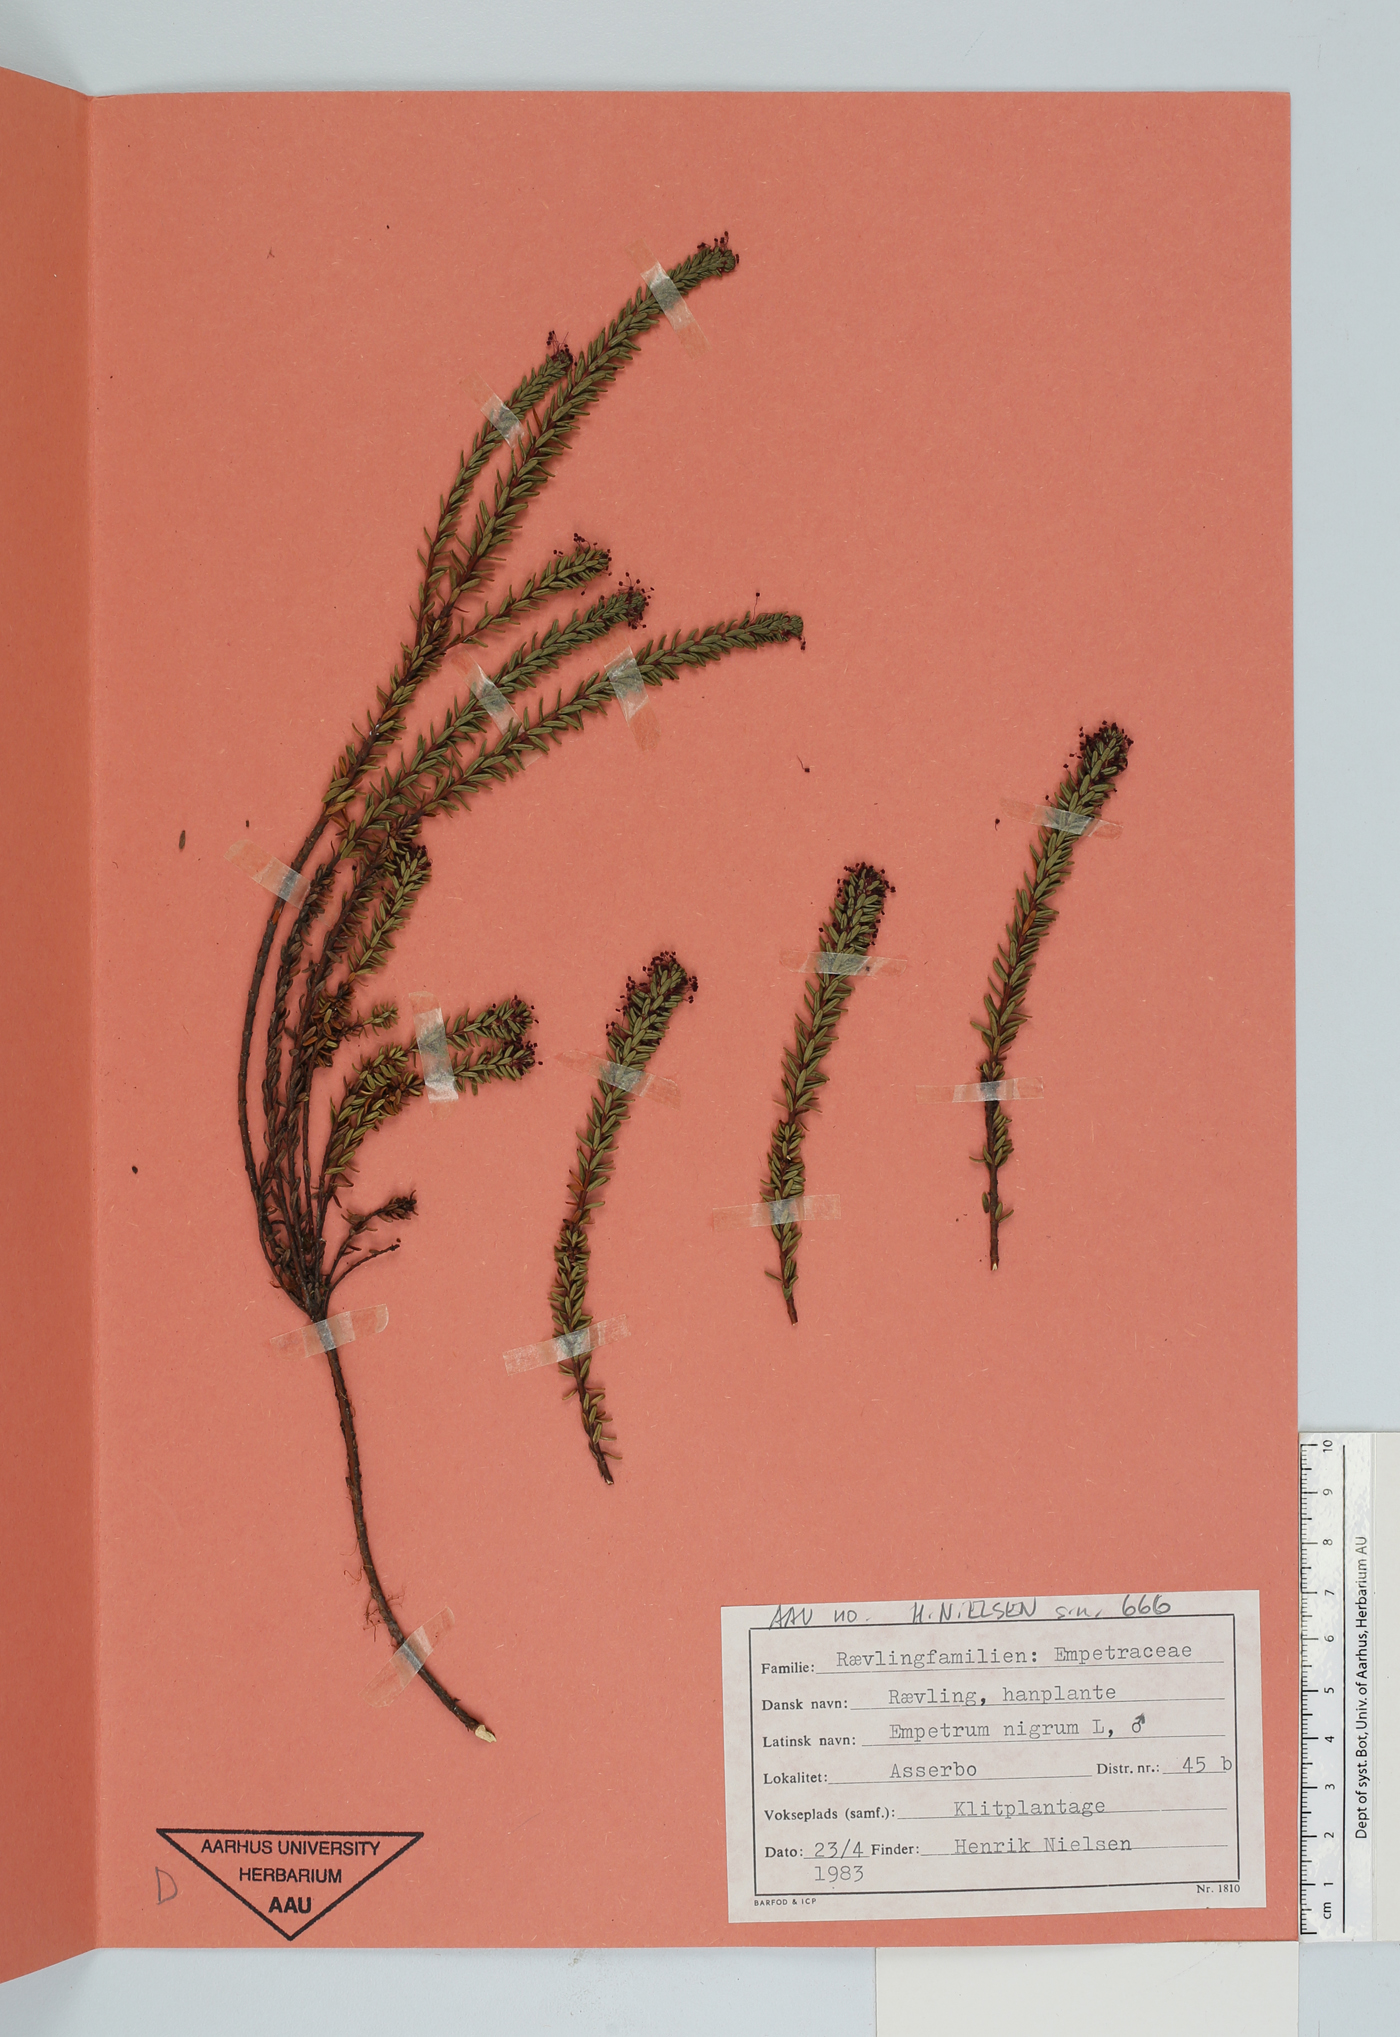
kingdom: Plantae
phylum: Tracheophyta
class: Magnoliopsida
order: Ericales
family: Ericaceae
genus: Empetrum
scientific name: Empetrum nigrum
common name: Black crowberry
